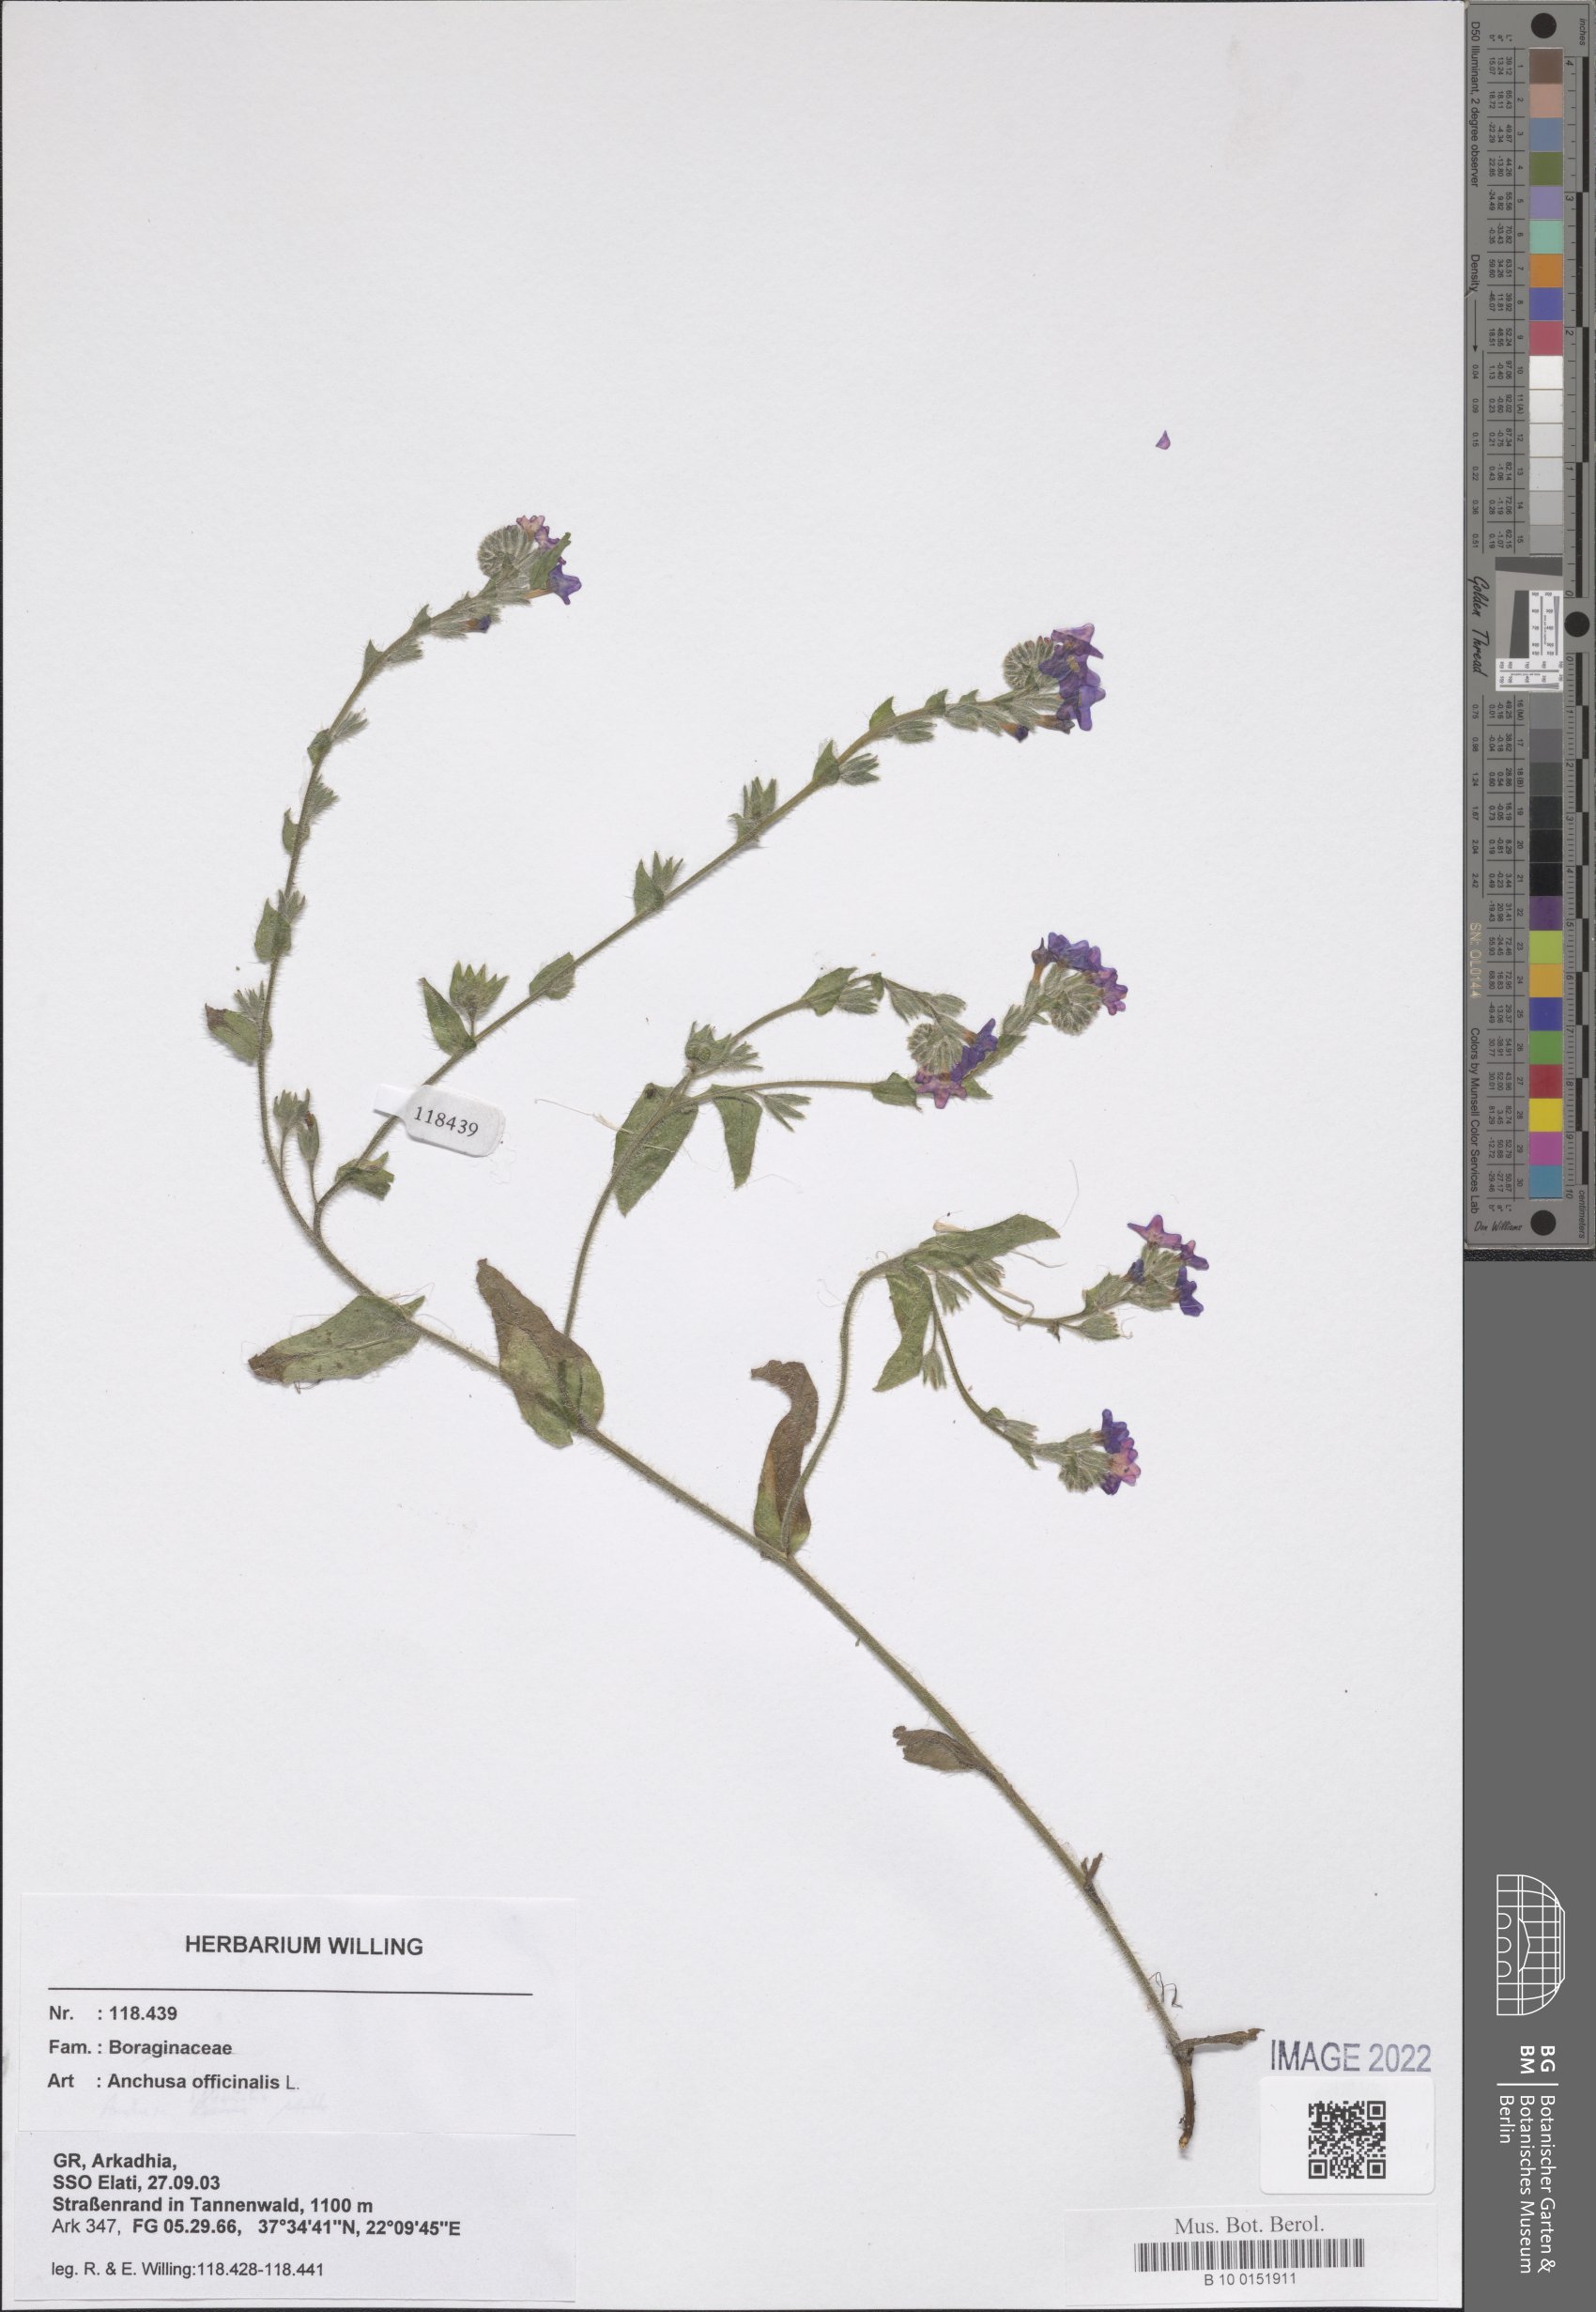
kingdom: Plantae
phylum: Tracheophyta
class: Magnoliopsida
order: Boraginales
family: Boraginaceae
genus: Anchusa
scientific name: Anchusa officinalis
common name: Alkanet
